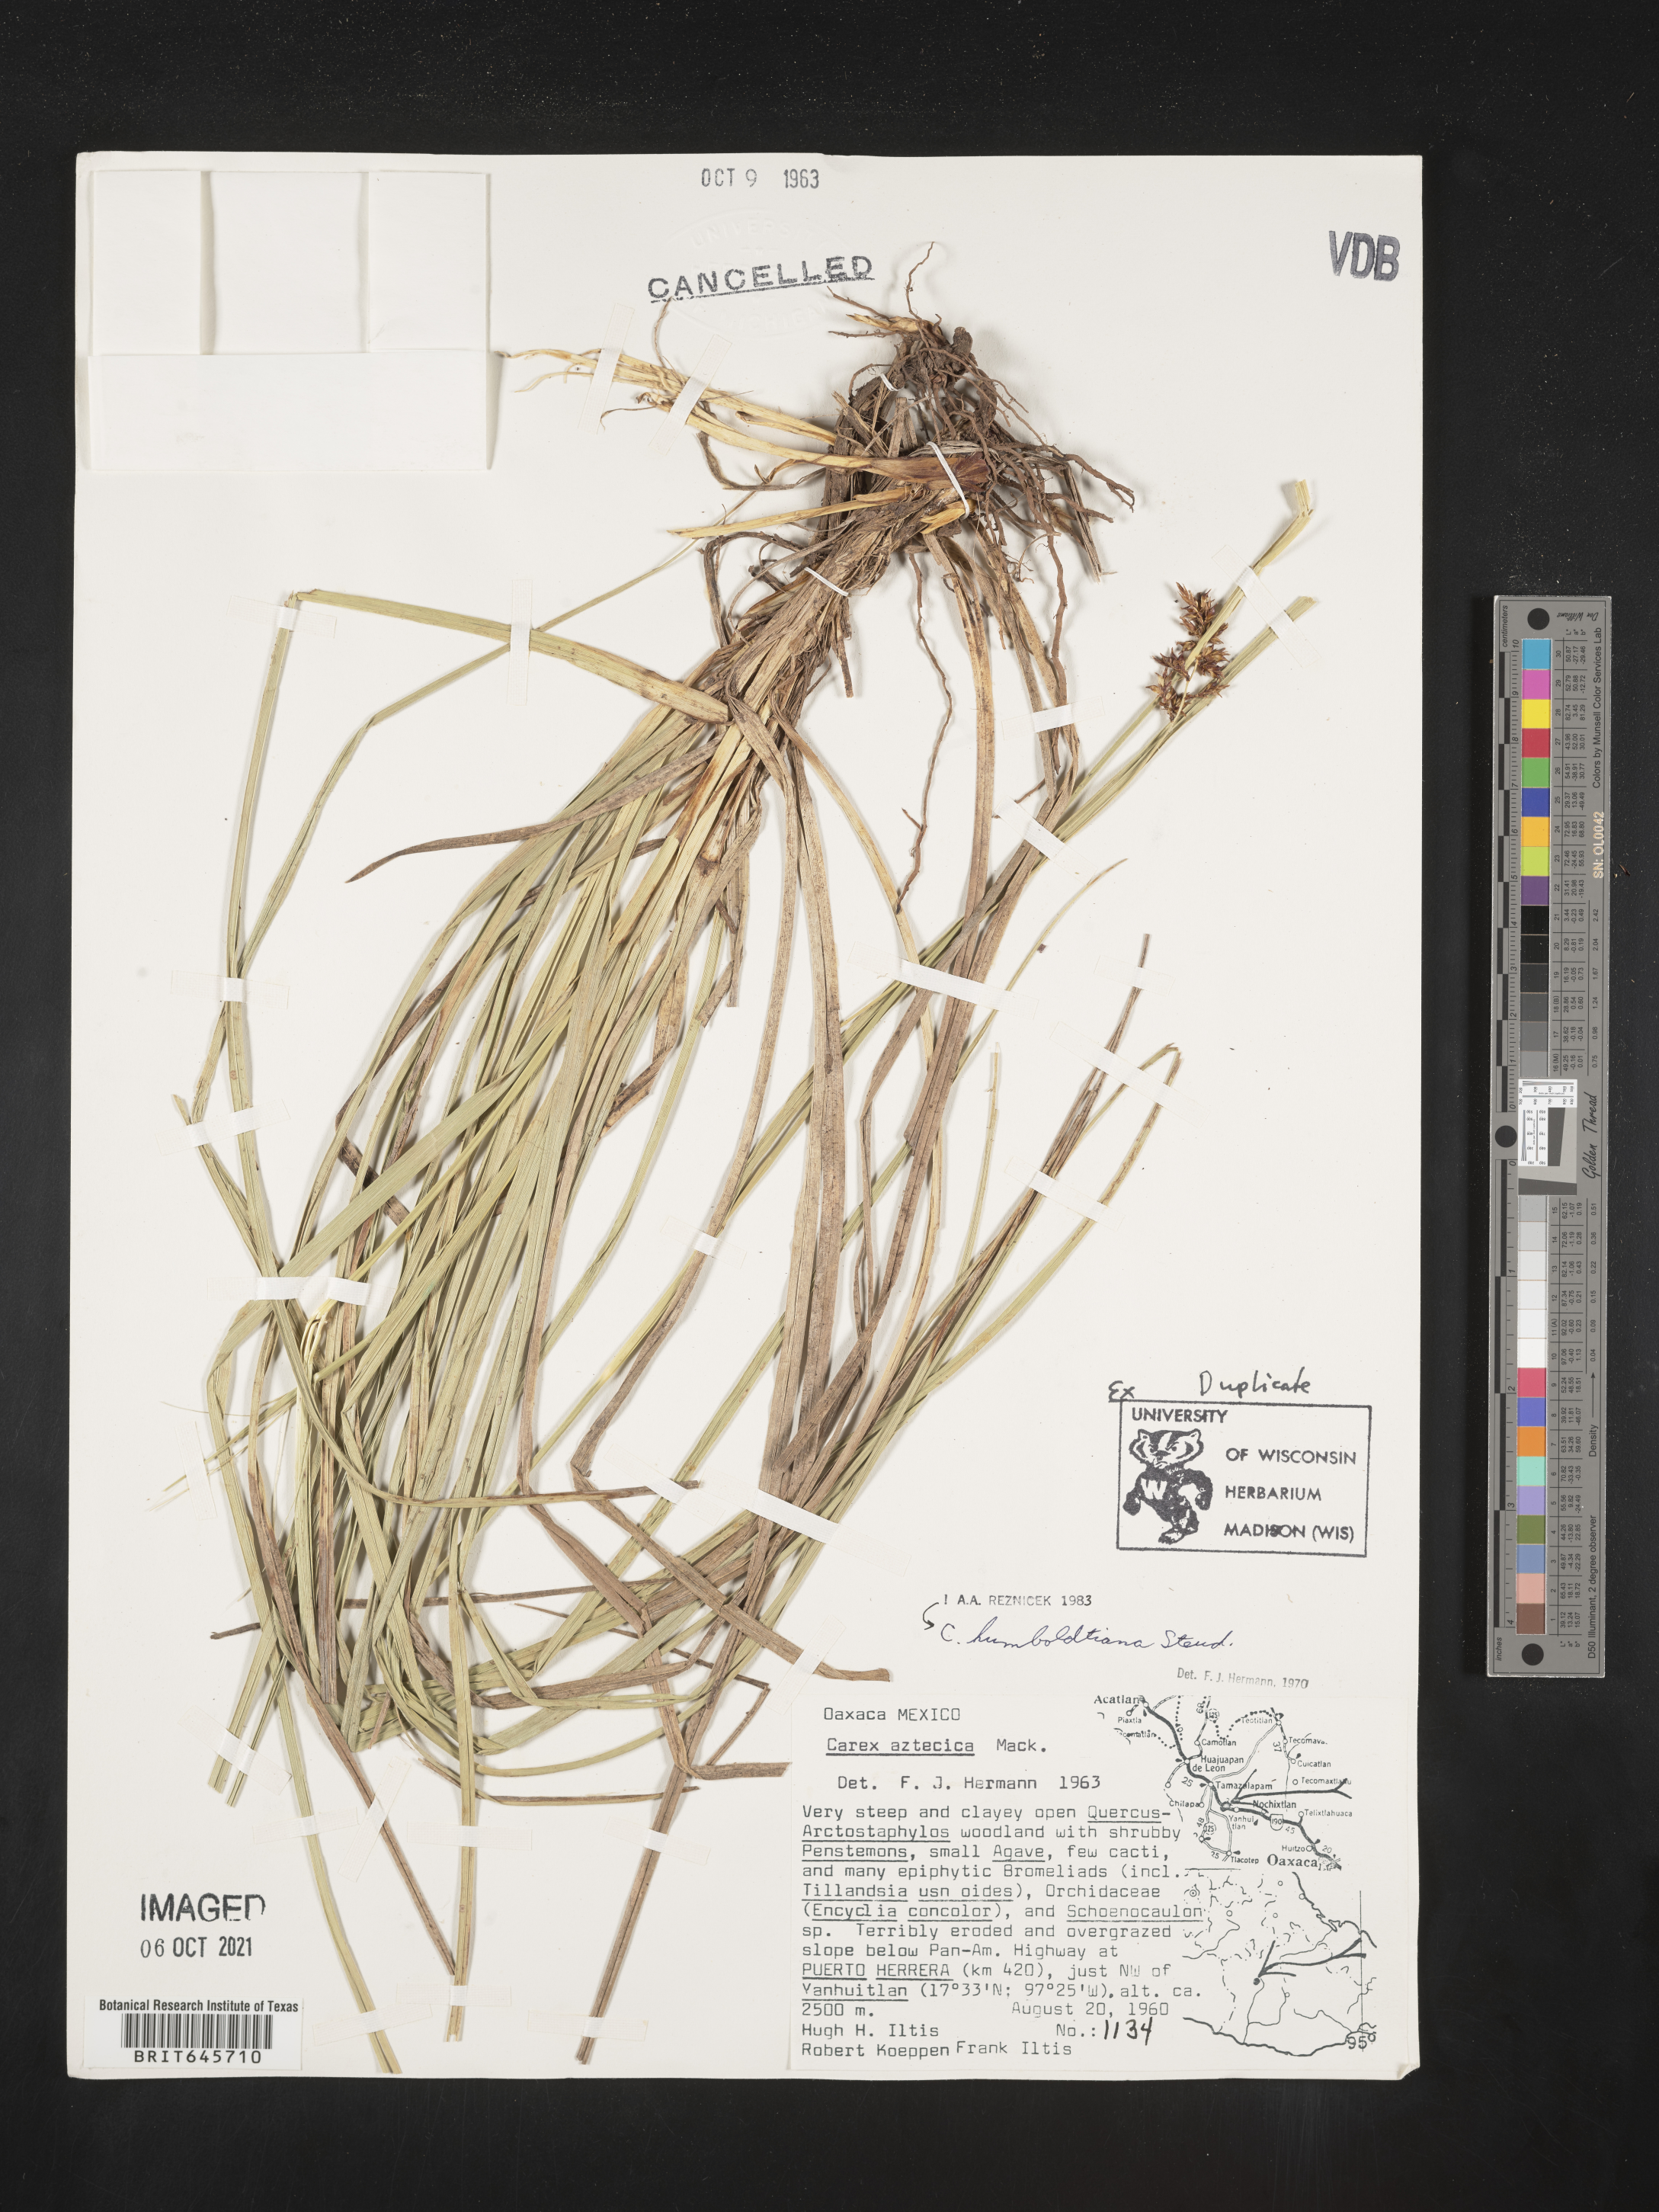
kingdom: Plantae
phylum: Tracheophyta
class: Liliopsida
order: Poales
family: Cyperaceae
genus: Carex
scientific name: Carex humboldtiana
